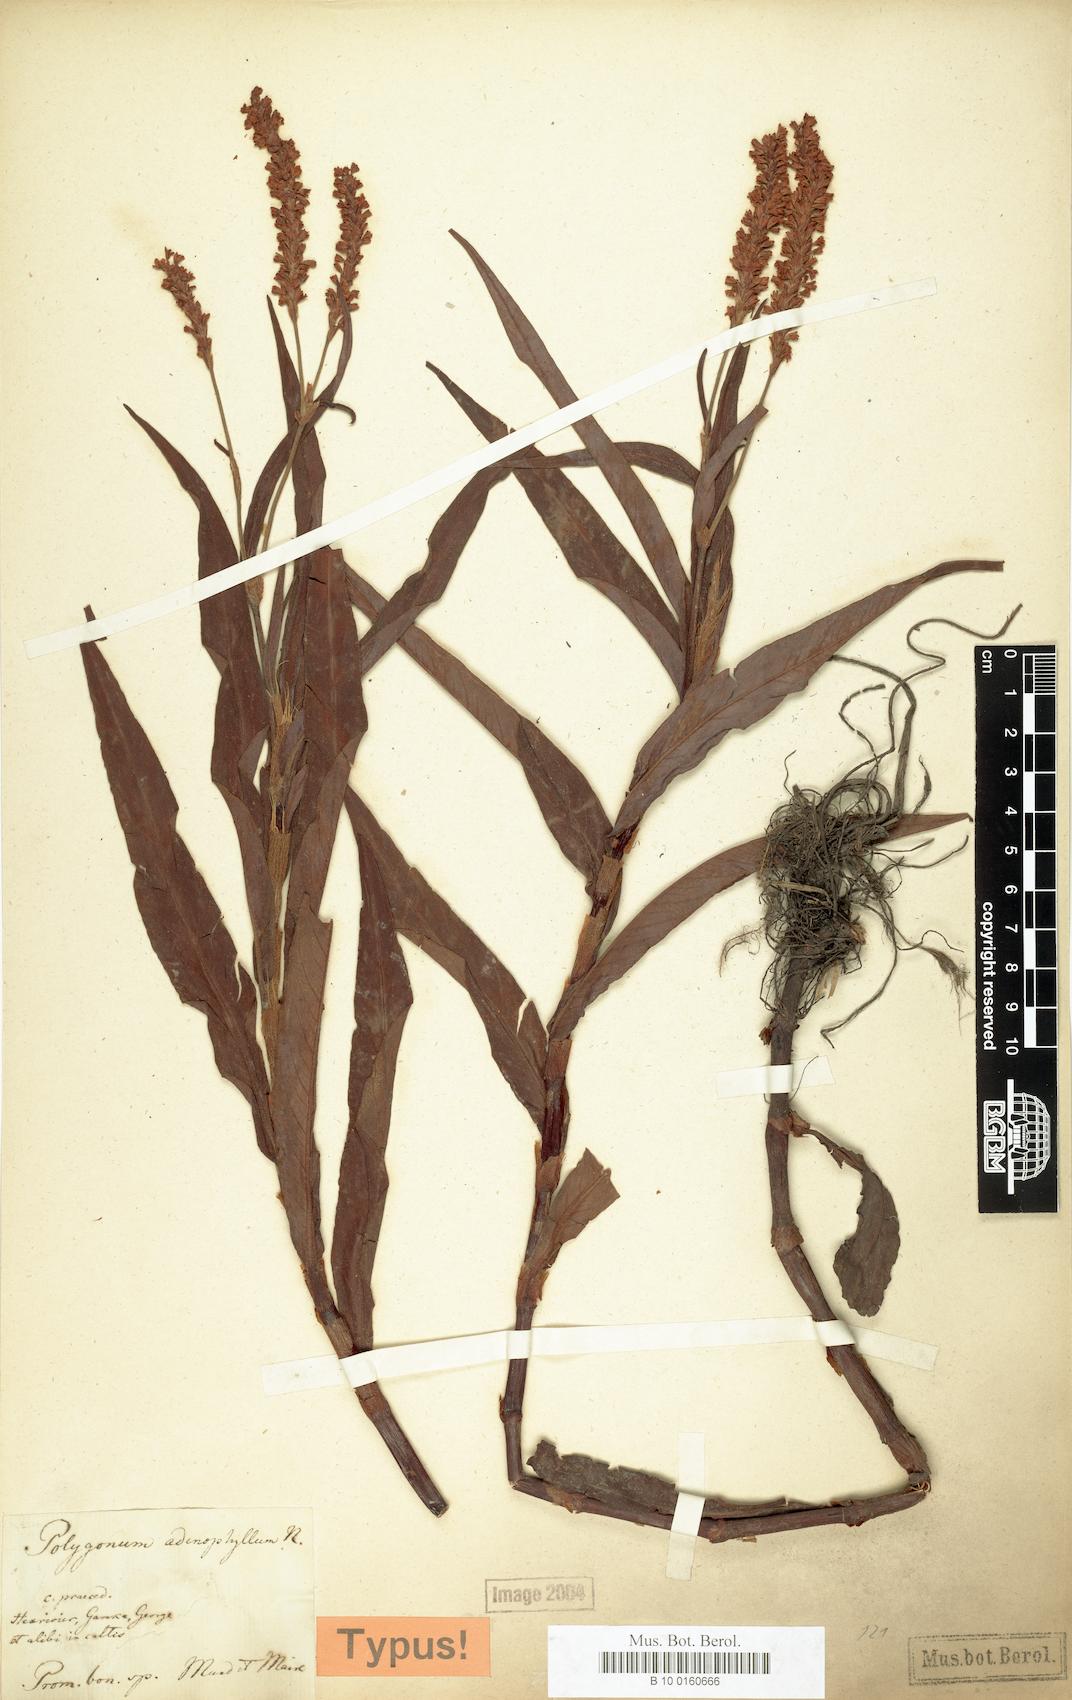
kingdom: Plantae
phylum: Tracheophyta
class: Magnoliopsida
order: Caryophyllales
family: Polygonaceae
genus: Persicaria
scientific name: Persicaria madagascariensis
